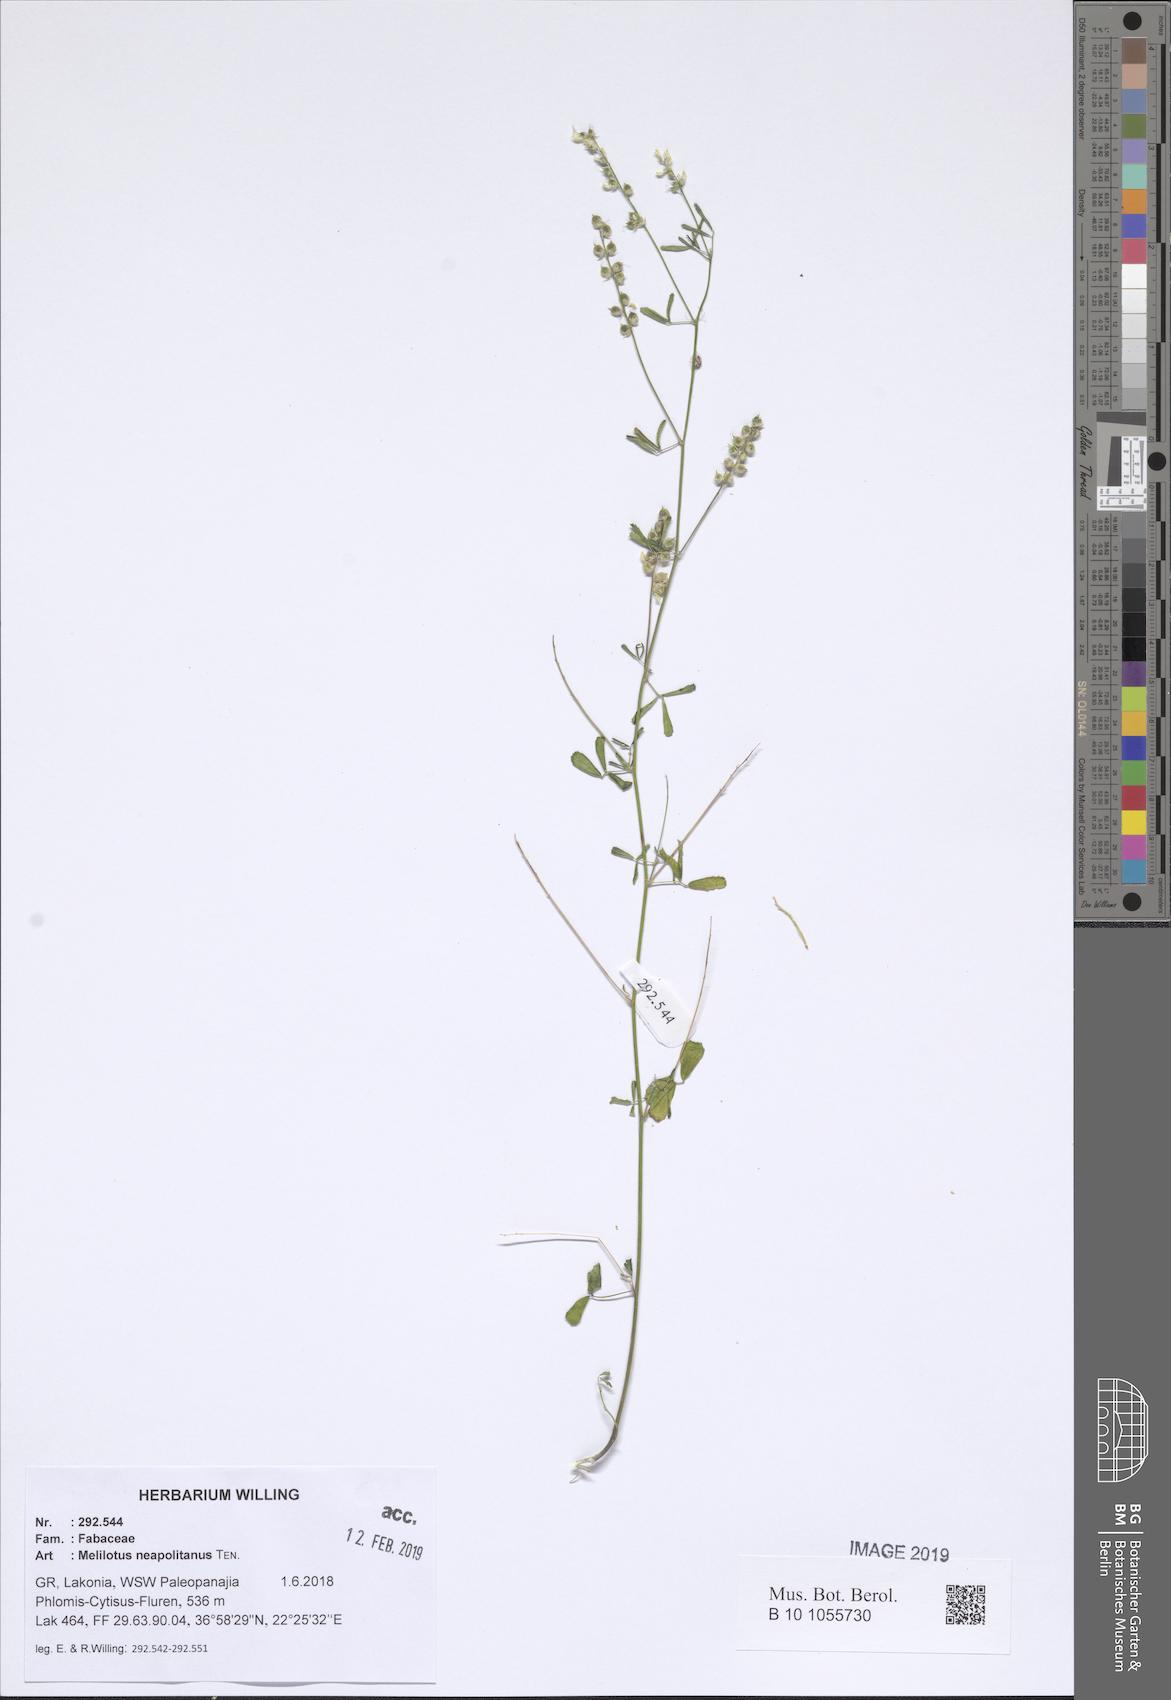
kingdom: Plantae
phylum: Tracheophyta
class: Magnoliopsida
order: Fabales
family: Fabaceae
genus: Melilotus
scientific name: Melilotus neapolitanus
